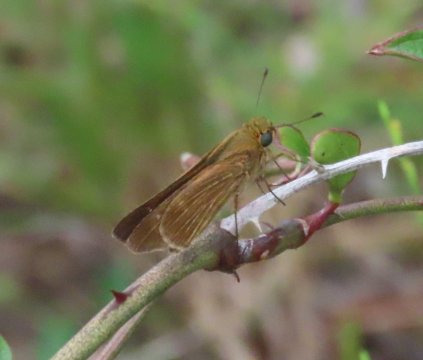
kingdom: Animalia
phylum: Arthropoda
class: Insecta
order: Lepidoptera
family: Hesperiidae
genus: Panoquina
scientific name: Panoquina ocola
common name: Ocola Skipper
